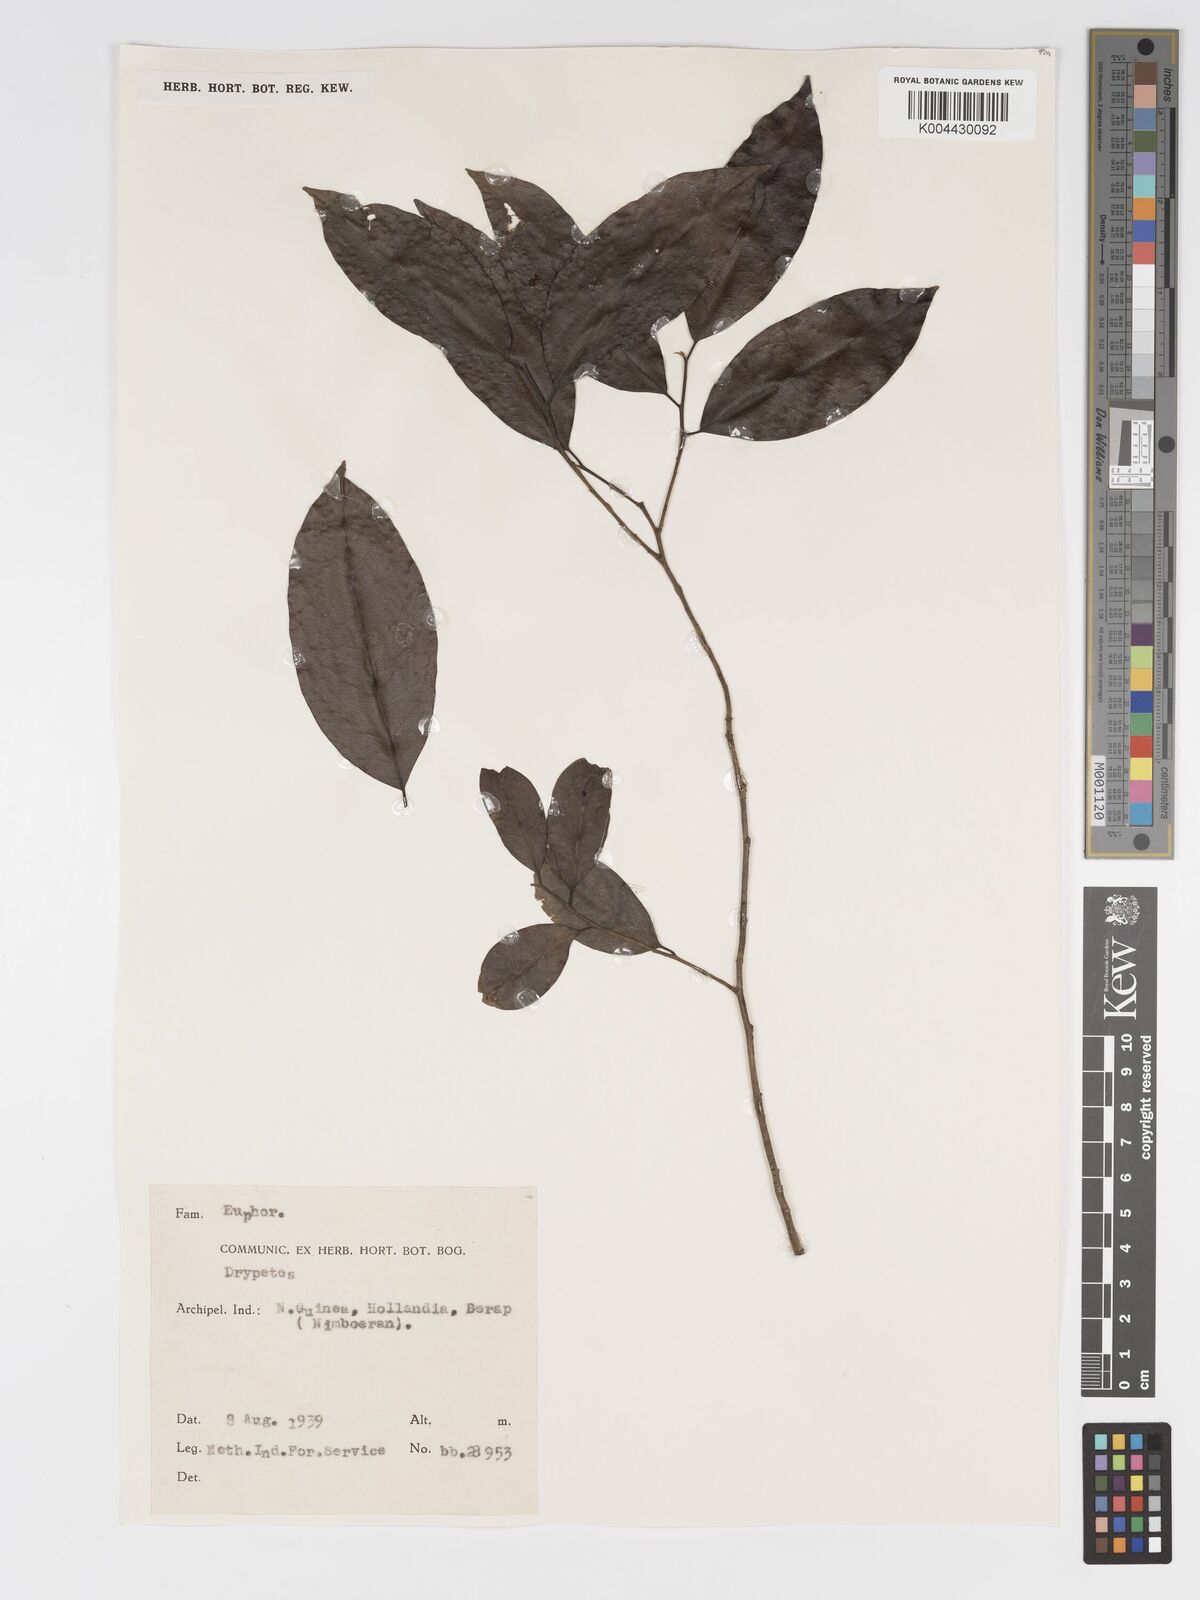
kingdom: Plantae
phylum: Tracheophyta
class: Magnoliopsida
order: Malpighiales
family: Putranjivaceae
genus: Drypetes
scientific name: Drypetes lasiogynoides
